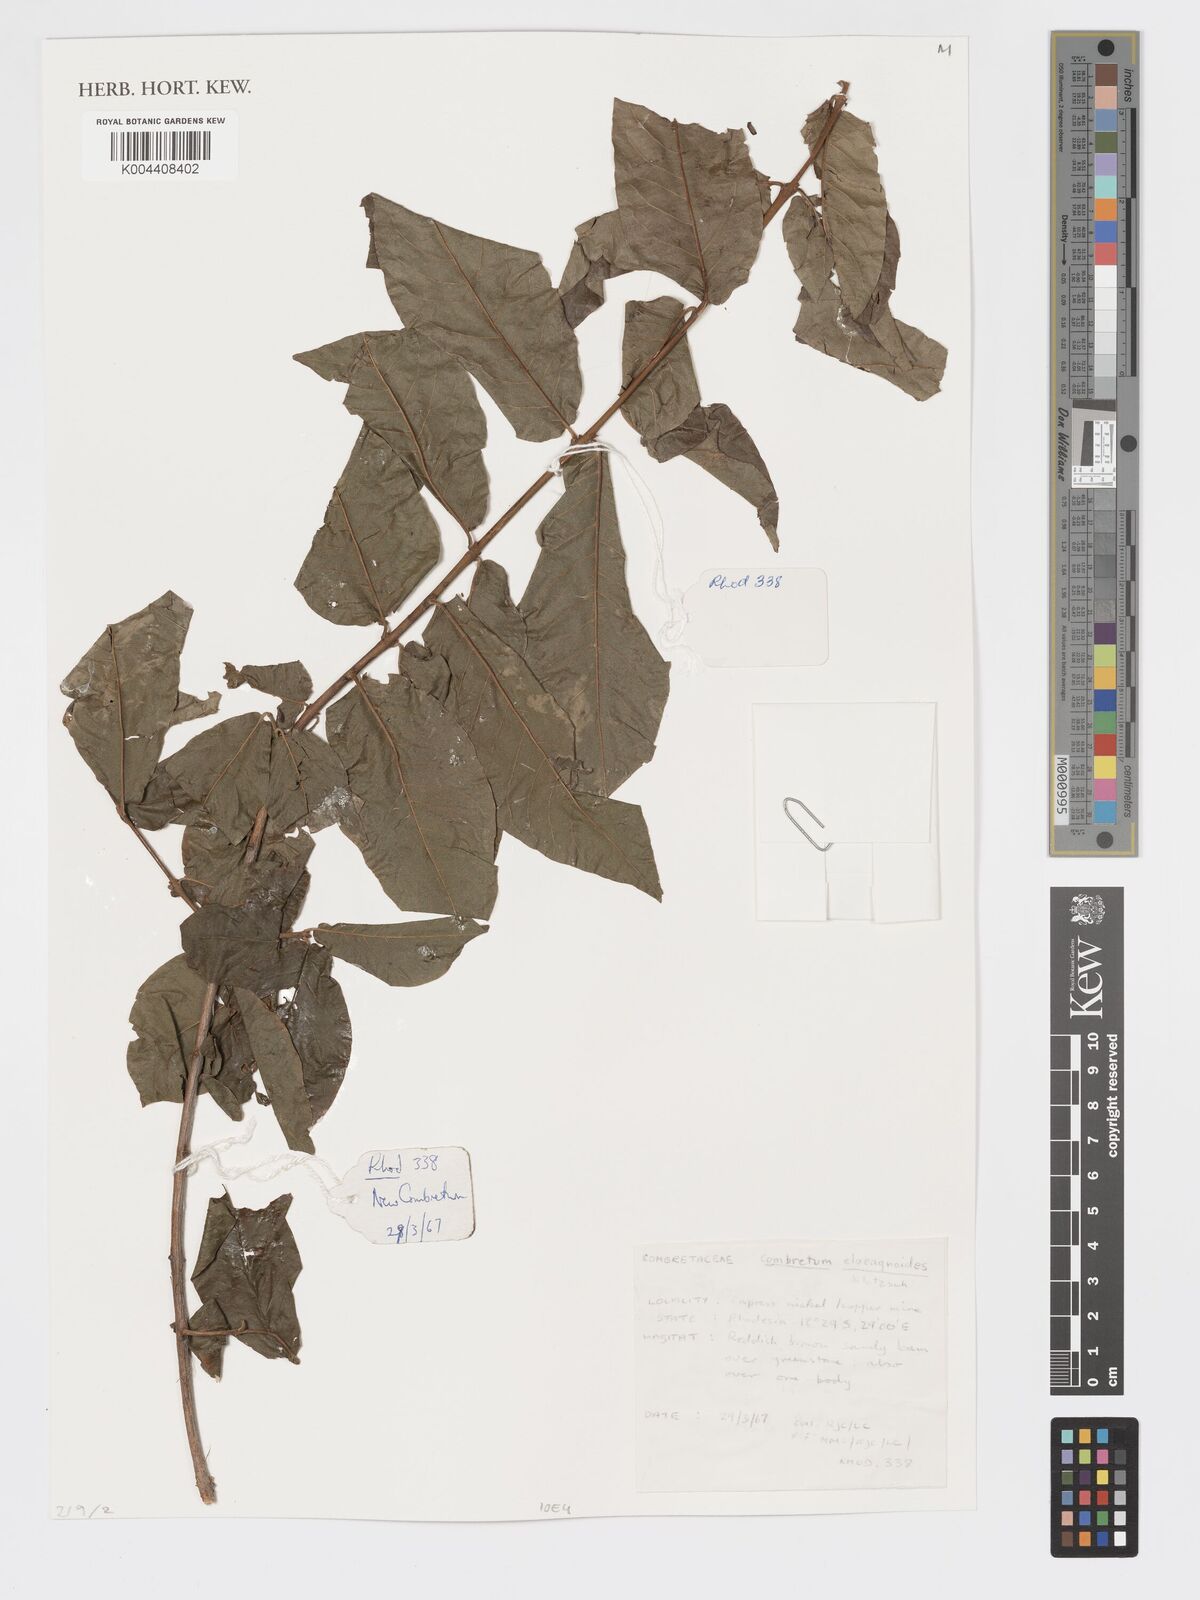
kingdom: Plantae
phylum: Tracheophyta
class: Magnoliopsida
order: Myrtales
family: Combretaceae
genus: Combretum
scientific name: Combretum elaeagnoides
